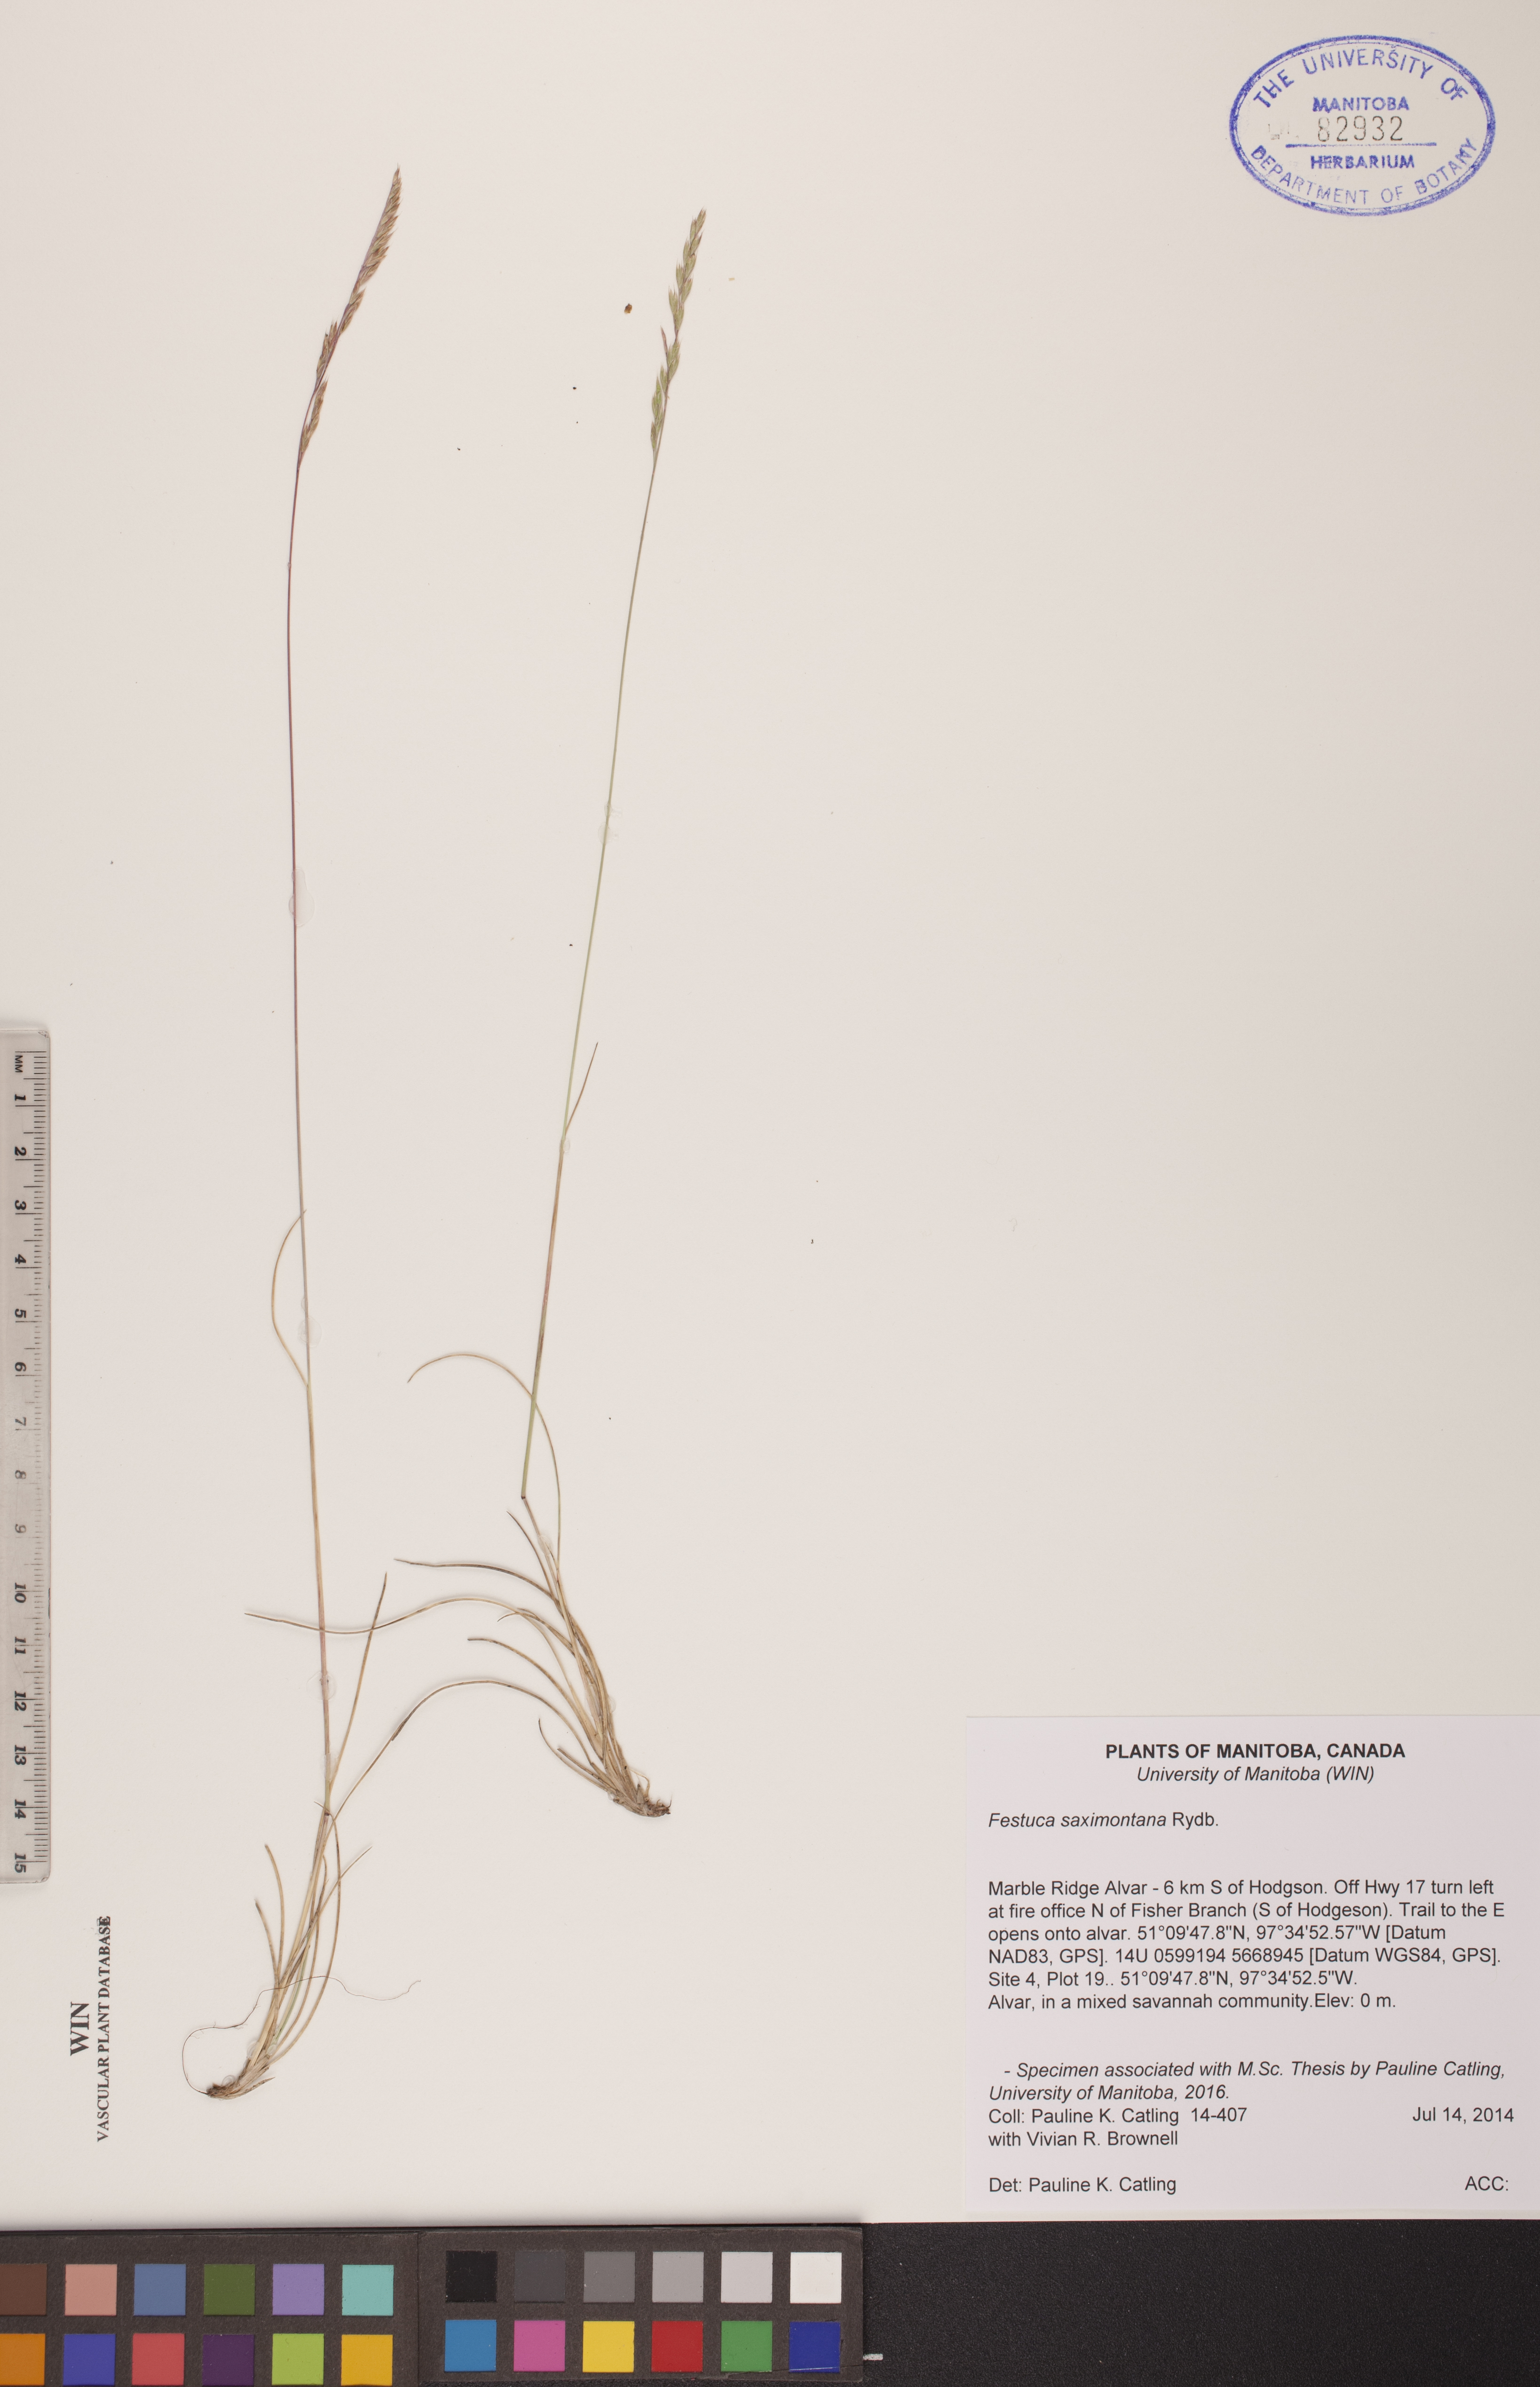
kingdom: Plantae
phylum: Tracheophyta
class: Liliopsida
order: Poales
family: Poaceae
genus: Festuca
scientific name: Festuca saximontana
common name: Mountain fescue
